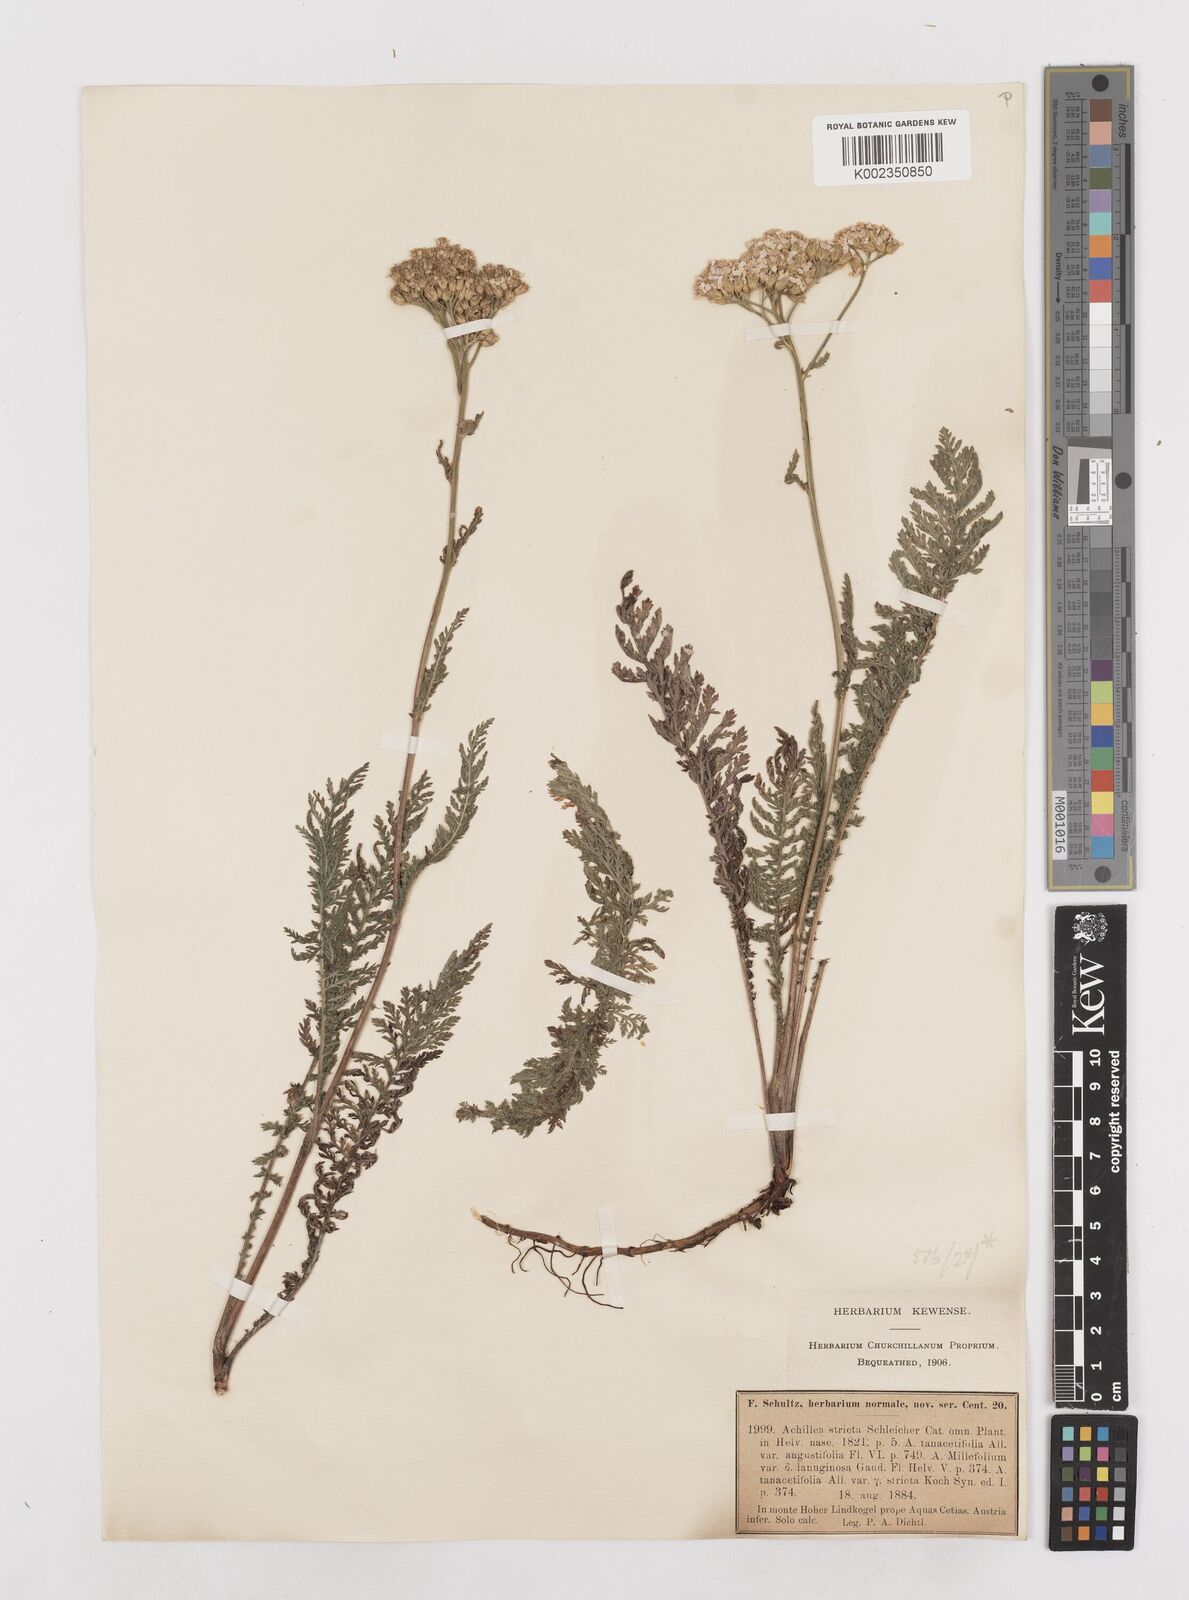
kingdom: Plantae
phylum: Tracheophyta
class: Magnoliopsida
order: Asterales
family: Asteraceae
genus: Achillea
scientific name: Achillea distans
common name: Tall yarrow
